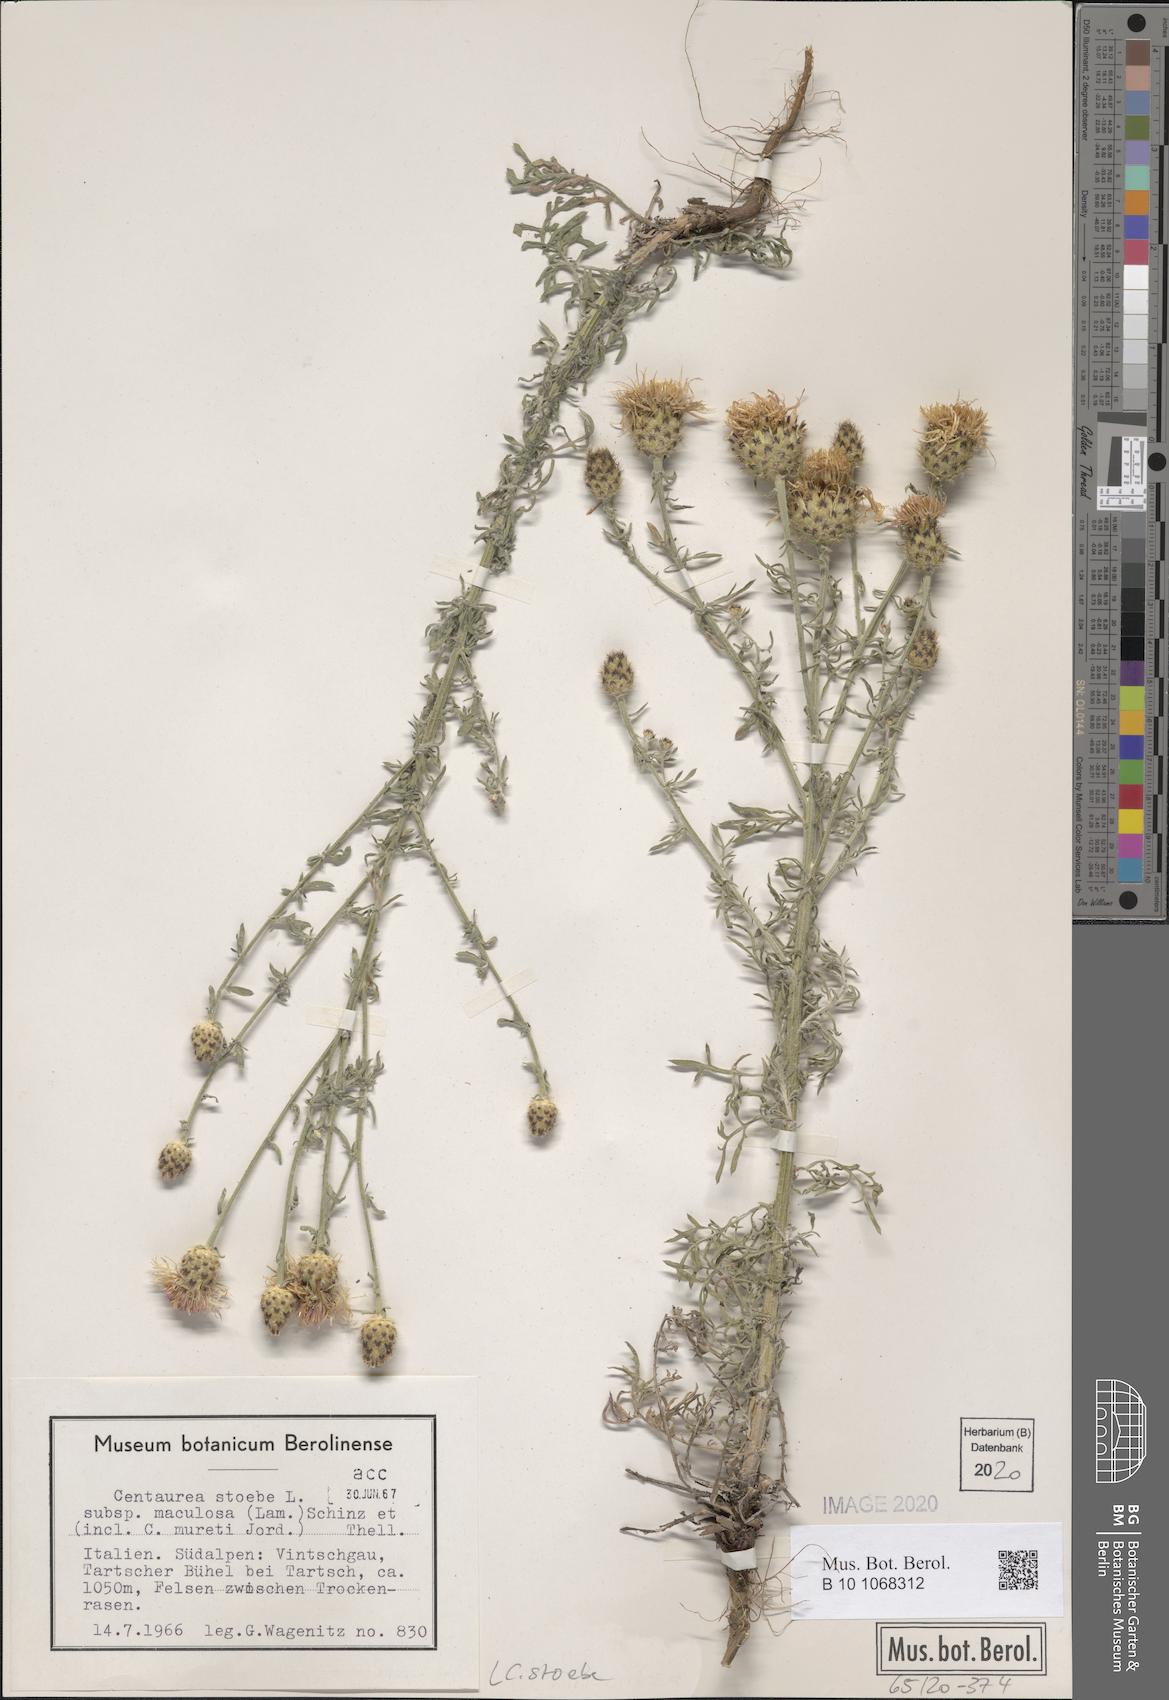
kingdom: Plantae
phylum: Tracheophyta
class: Magnoliopsida
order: Asterales
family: Asteraceae
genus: Centaurea
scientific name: Centaurea stoebe
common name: Spotted knapweed
